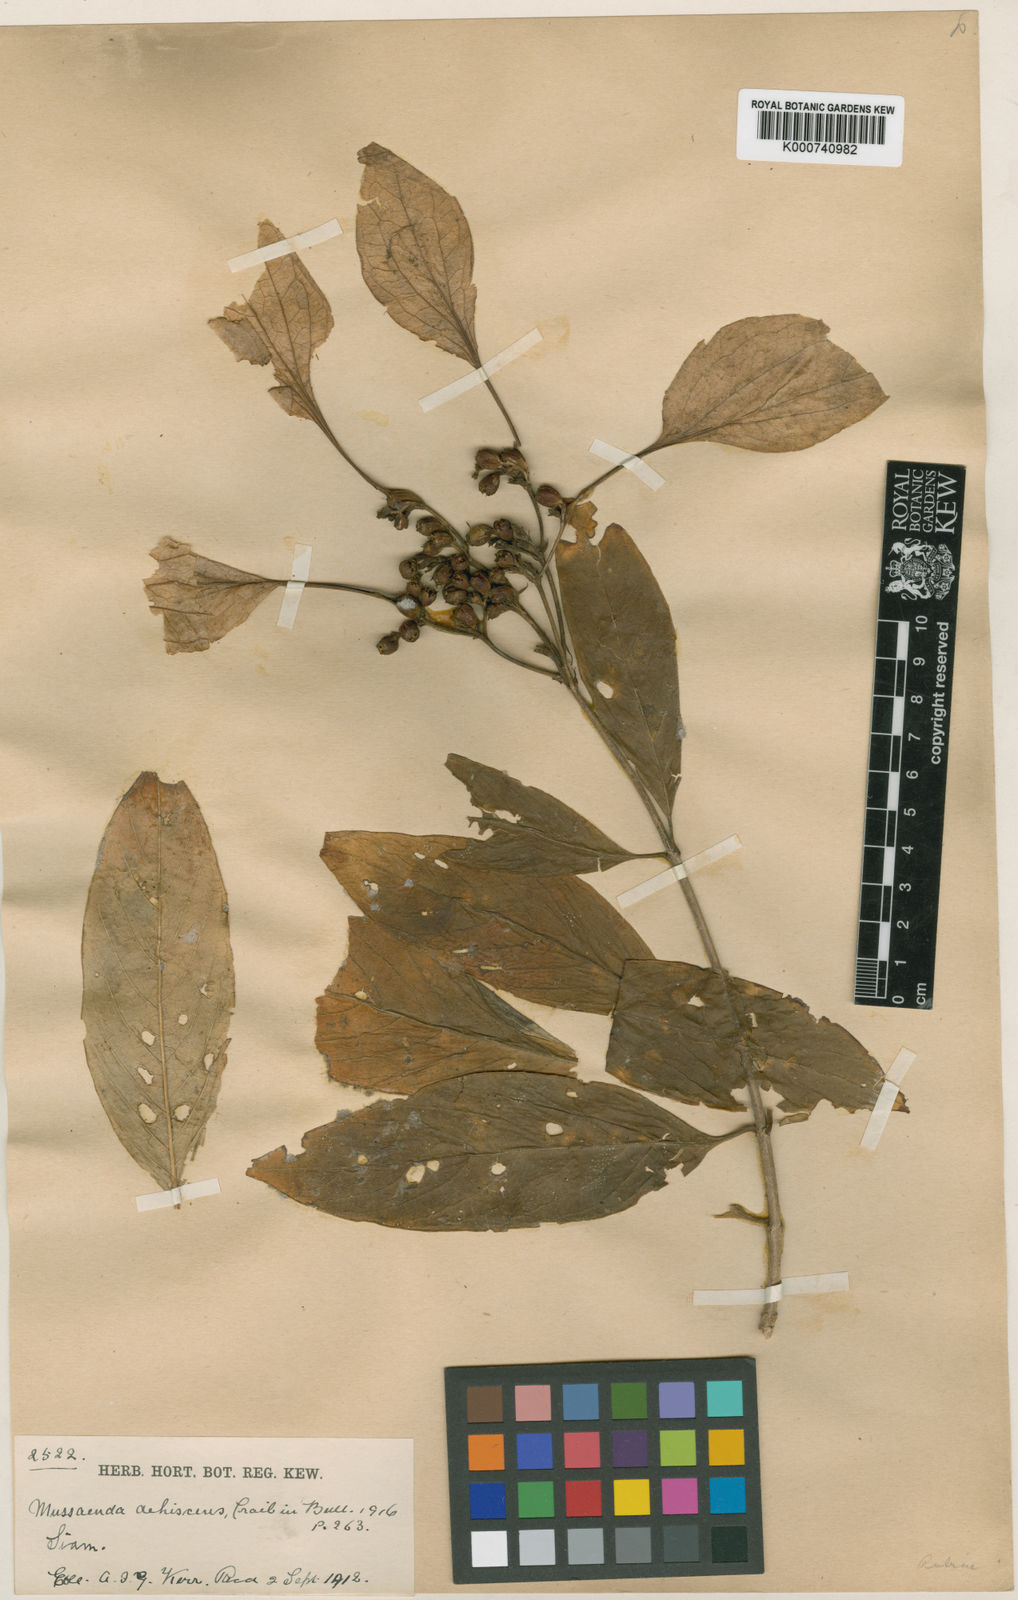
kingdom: Plantae
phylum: Tracheophyta
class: Magnoliopsida
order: Gentianales
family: Rubiaceae
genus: Schizomussaenda
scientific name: Schizomussaenda henryi
